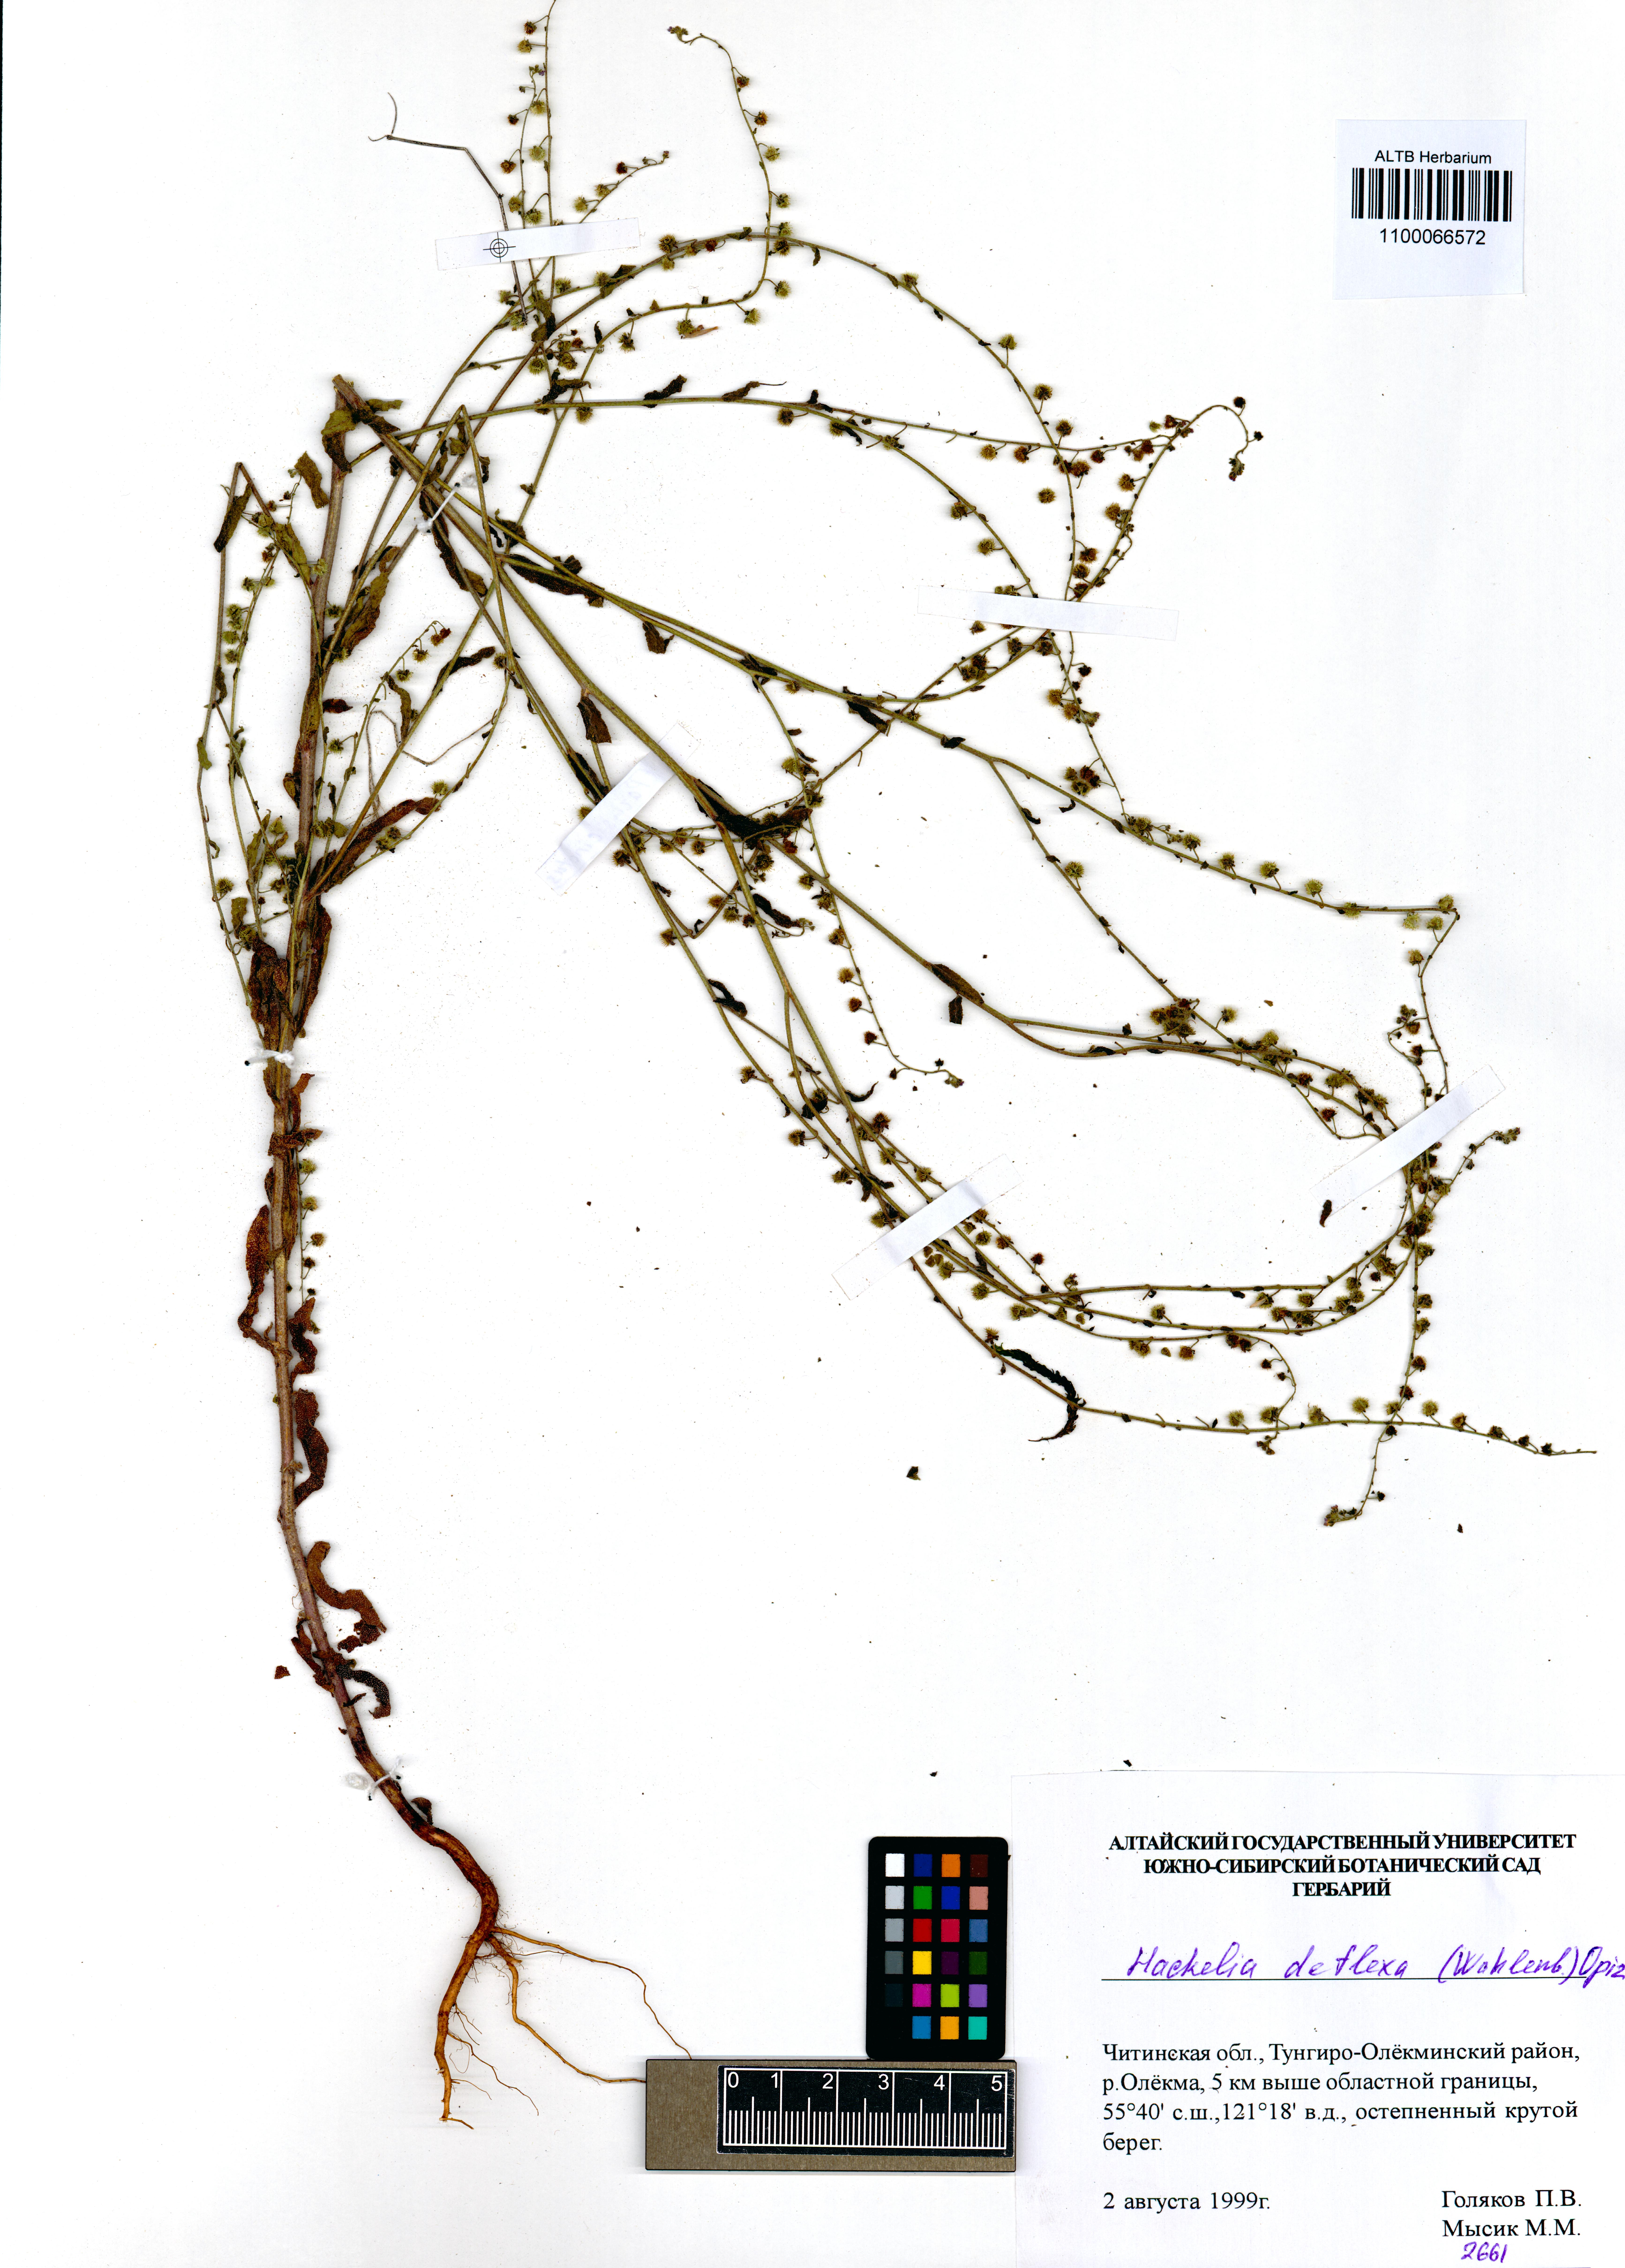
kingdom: Plantae
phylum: Tracheophyta
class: Magnoliopsida
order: Boraginales
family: Boraginaceae
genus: Hackelia
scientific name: Hackelia deflexa
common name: Nodding stickseed
